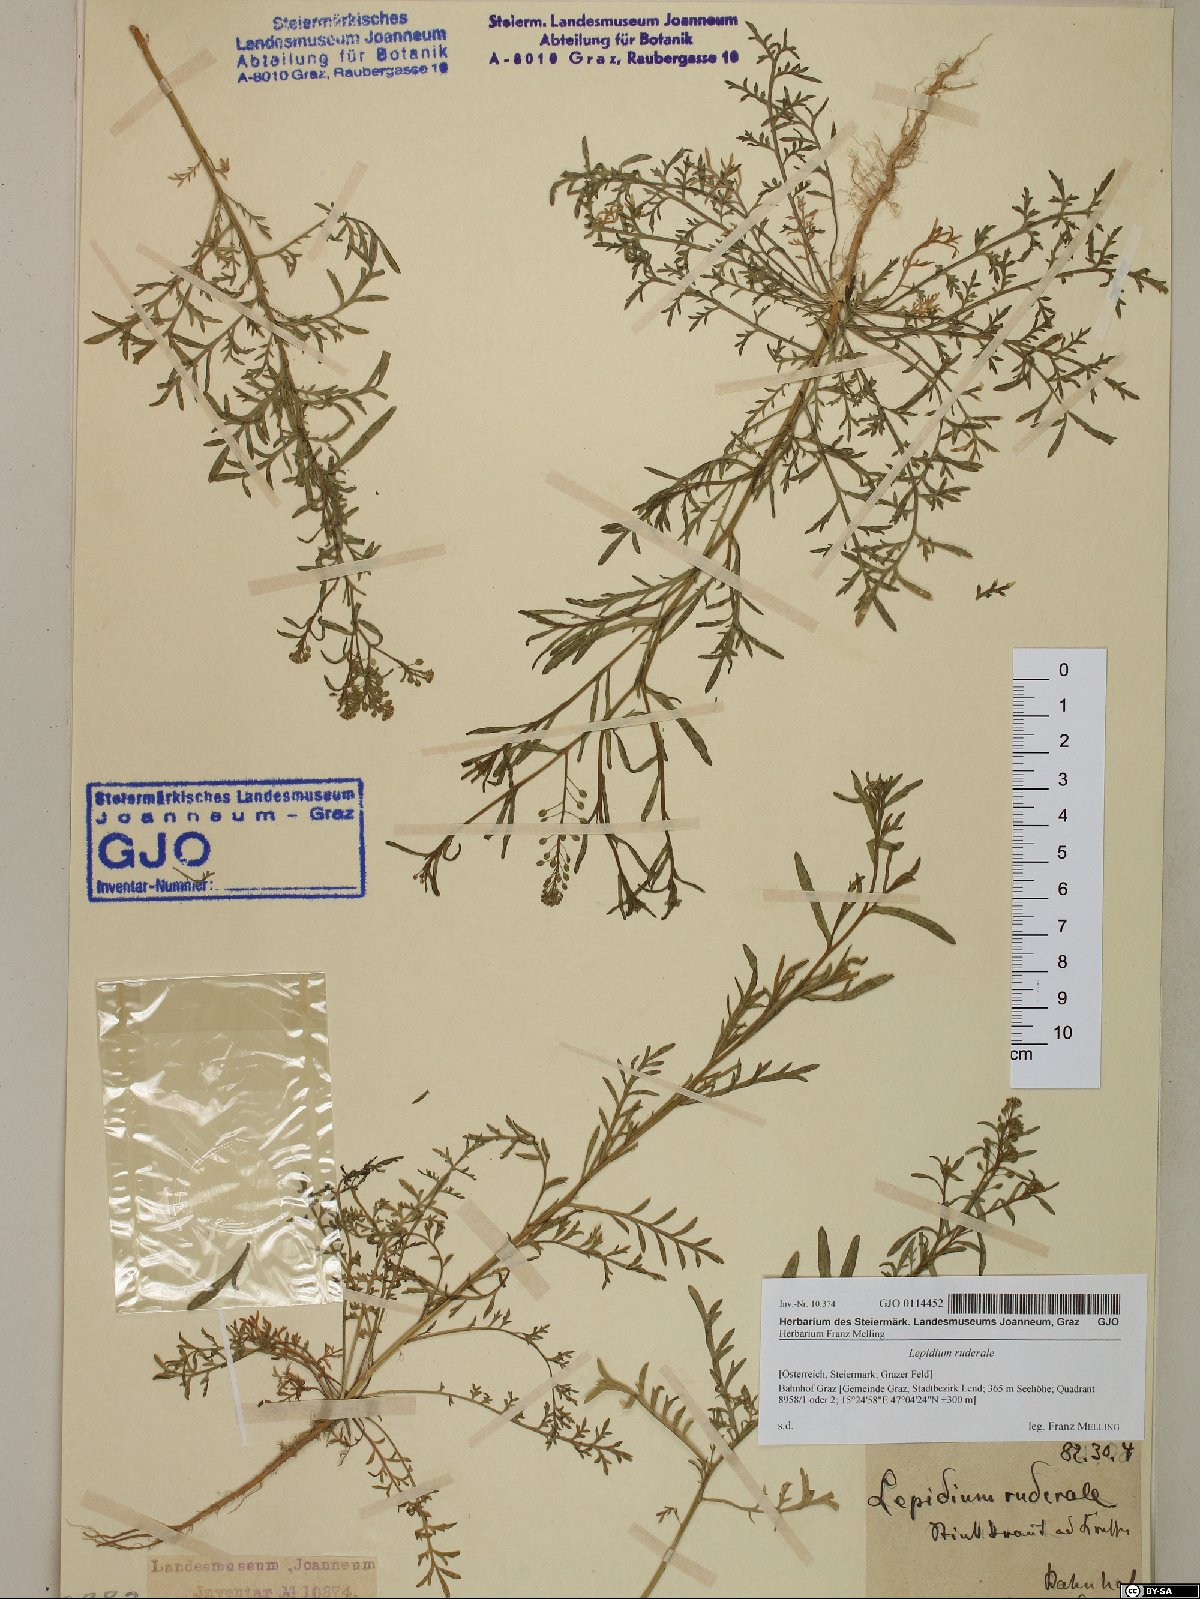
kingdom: Plantae
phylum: Tracheophyta
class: Magnoliopsida
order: Brassicales
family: Brassicaceae
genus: Lepidium
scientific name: Lepidium ruderale
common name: Narrow-leaved pepperwort
